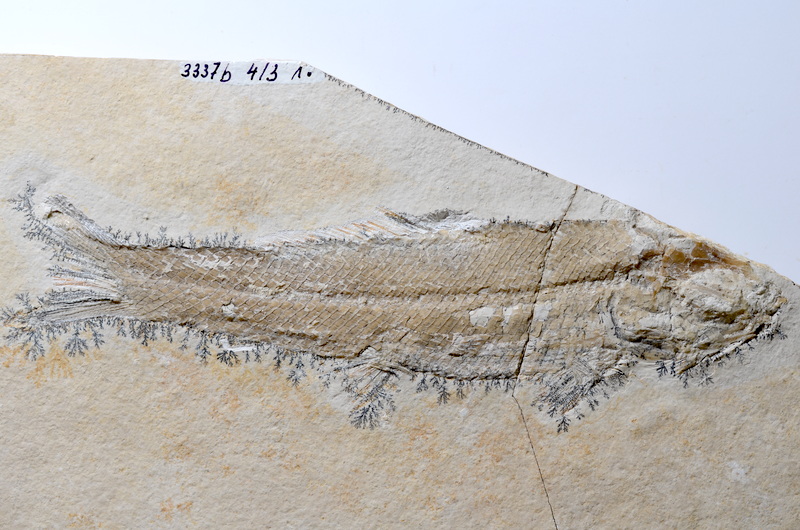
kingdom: Animalia
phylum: Chordata
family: Ophiopsiellidae
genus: Ophiopsiella
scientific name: Ophiopsiella attenuata
